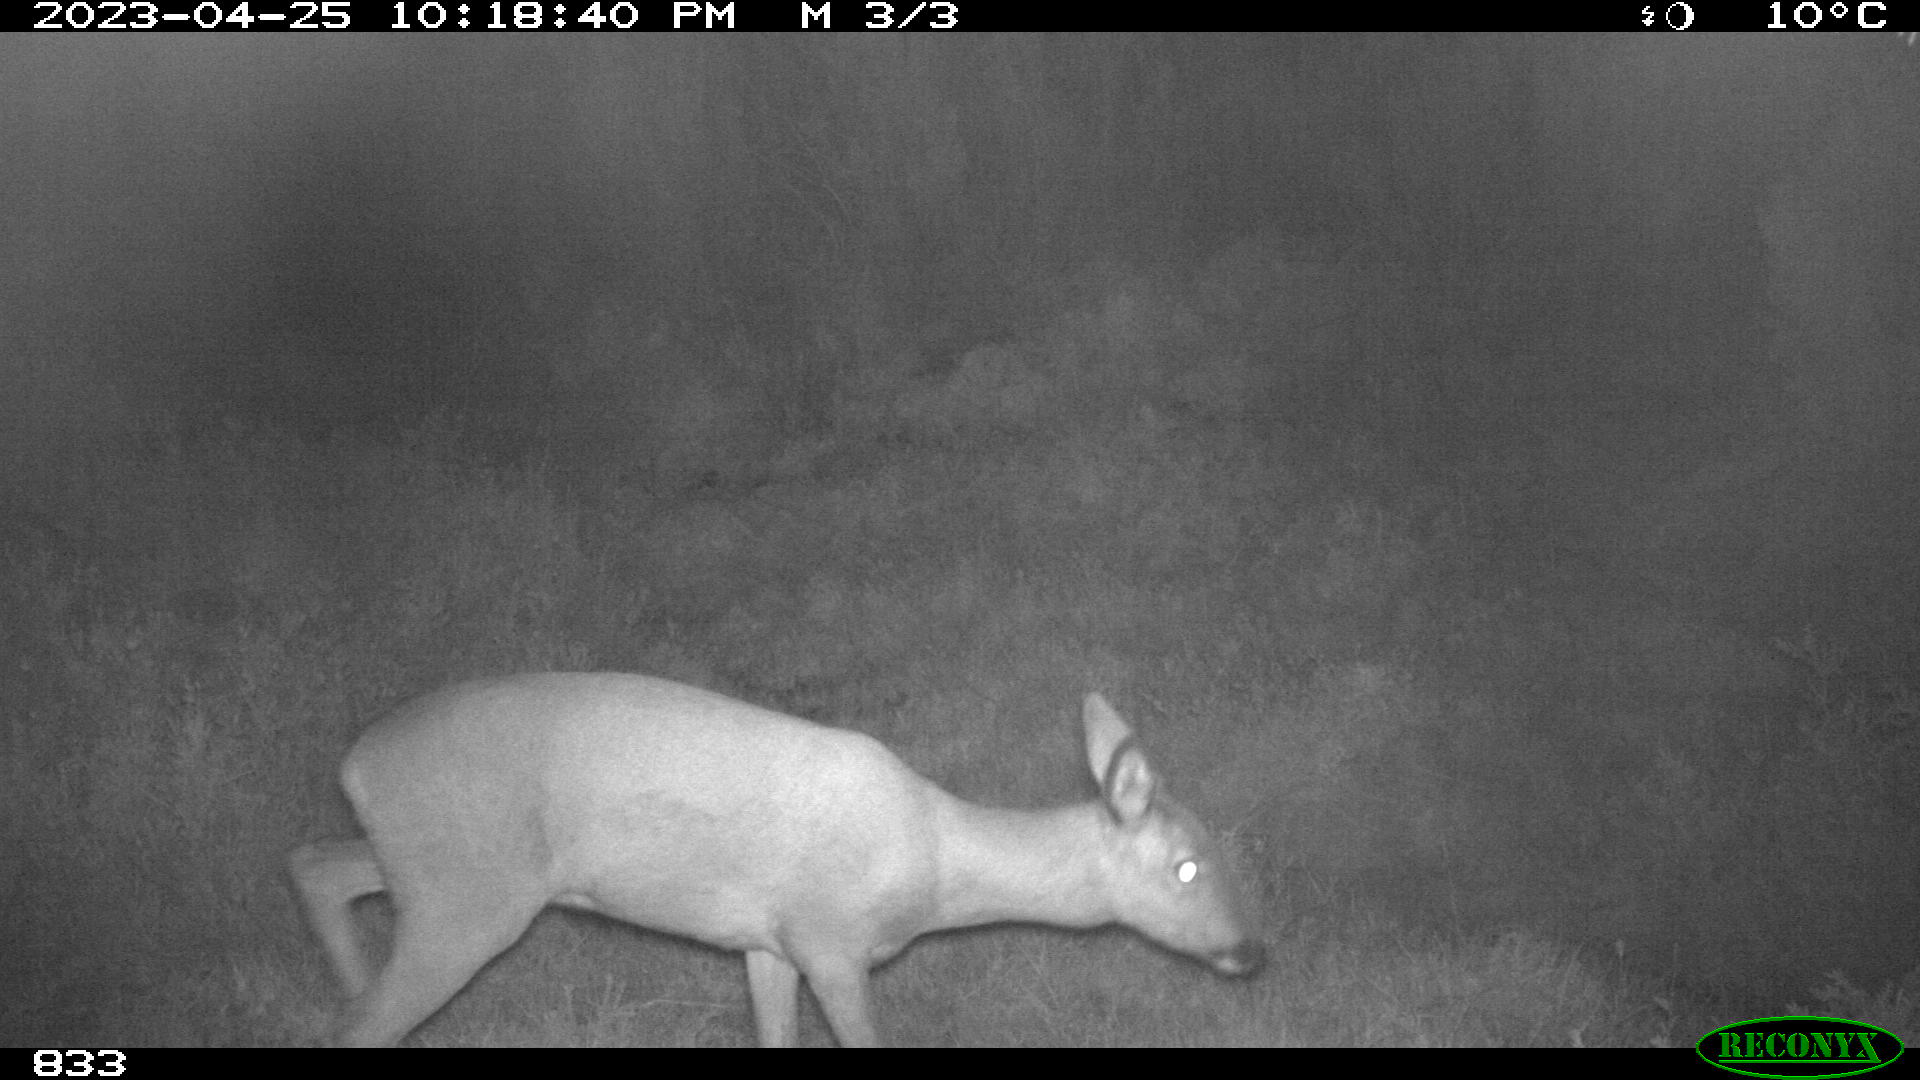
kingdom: Animalia
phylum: Chordata
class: Mammalia
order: Artiodactyla
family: Cervidae
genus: Capreolus
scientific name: Capreolus capreolus
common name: Western roe deer
